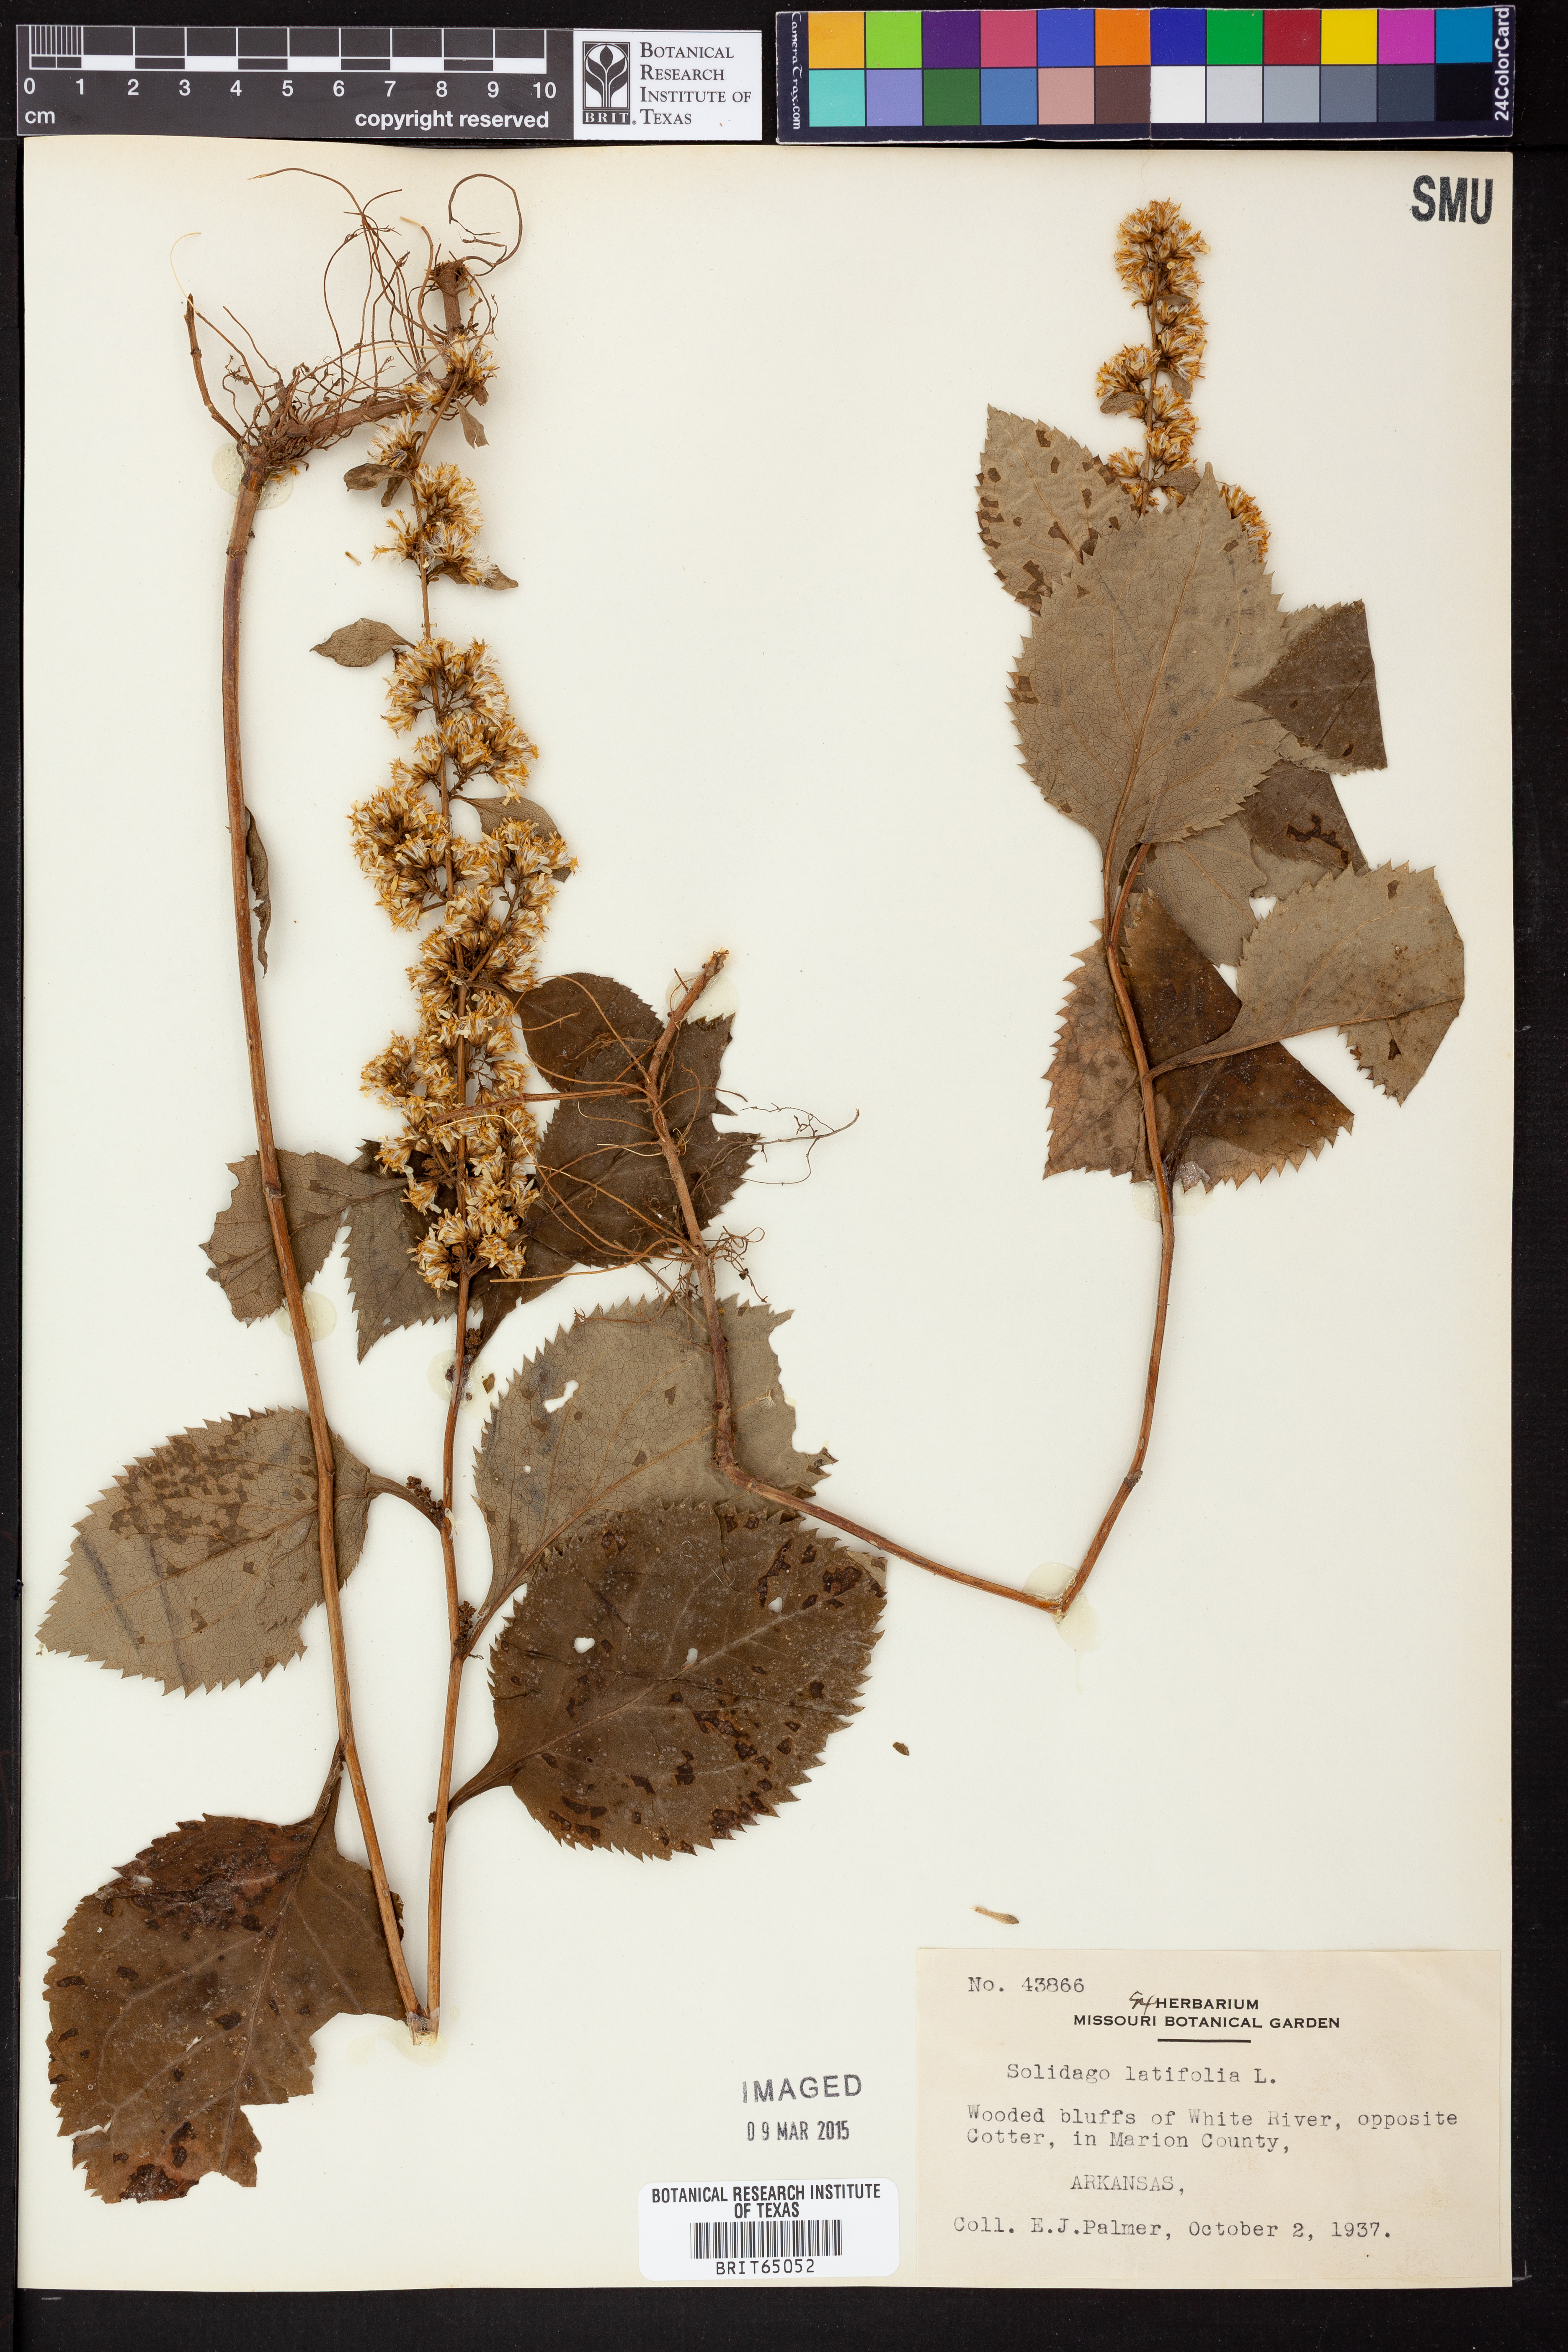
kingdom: Plantae
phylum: Tracheophyta
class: Magnoliopsida
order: Asterales
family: Asteraceae
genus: Solidago
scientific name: Solidago flexicaulis
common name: Zig-zag goldenrod
